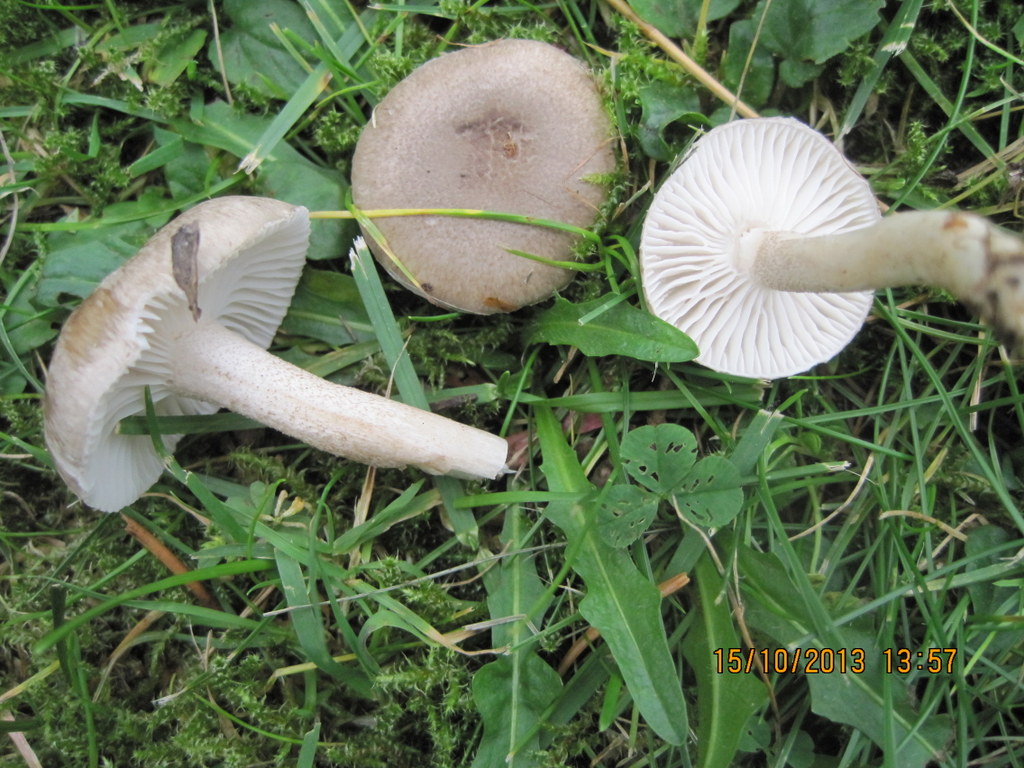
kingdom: Fungi
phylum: Basidiomycota
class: Agaricomycetes
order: Agaricales
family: Hygrophoraceae
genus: Hygrophorus
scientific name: Hygrophorus pustulatus
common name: mørkprikket sneglehat
